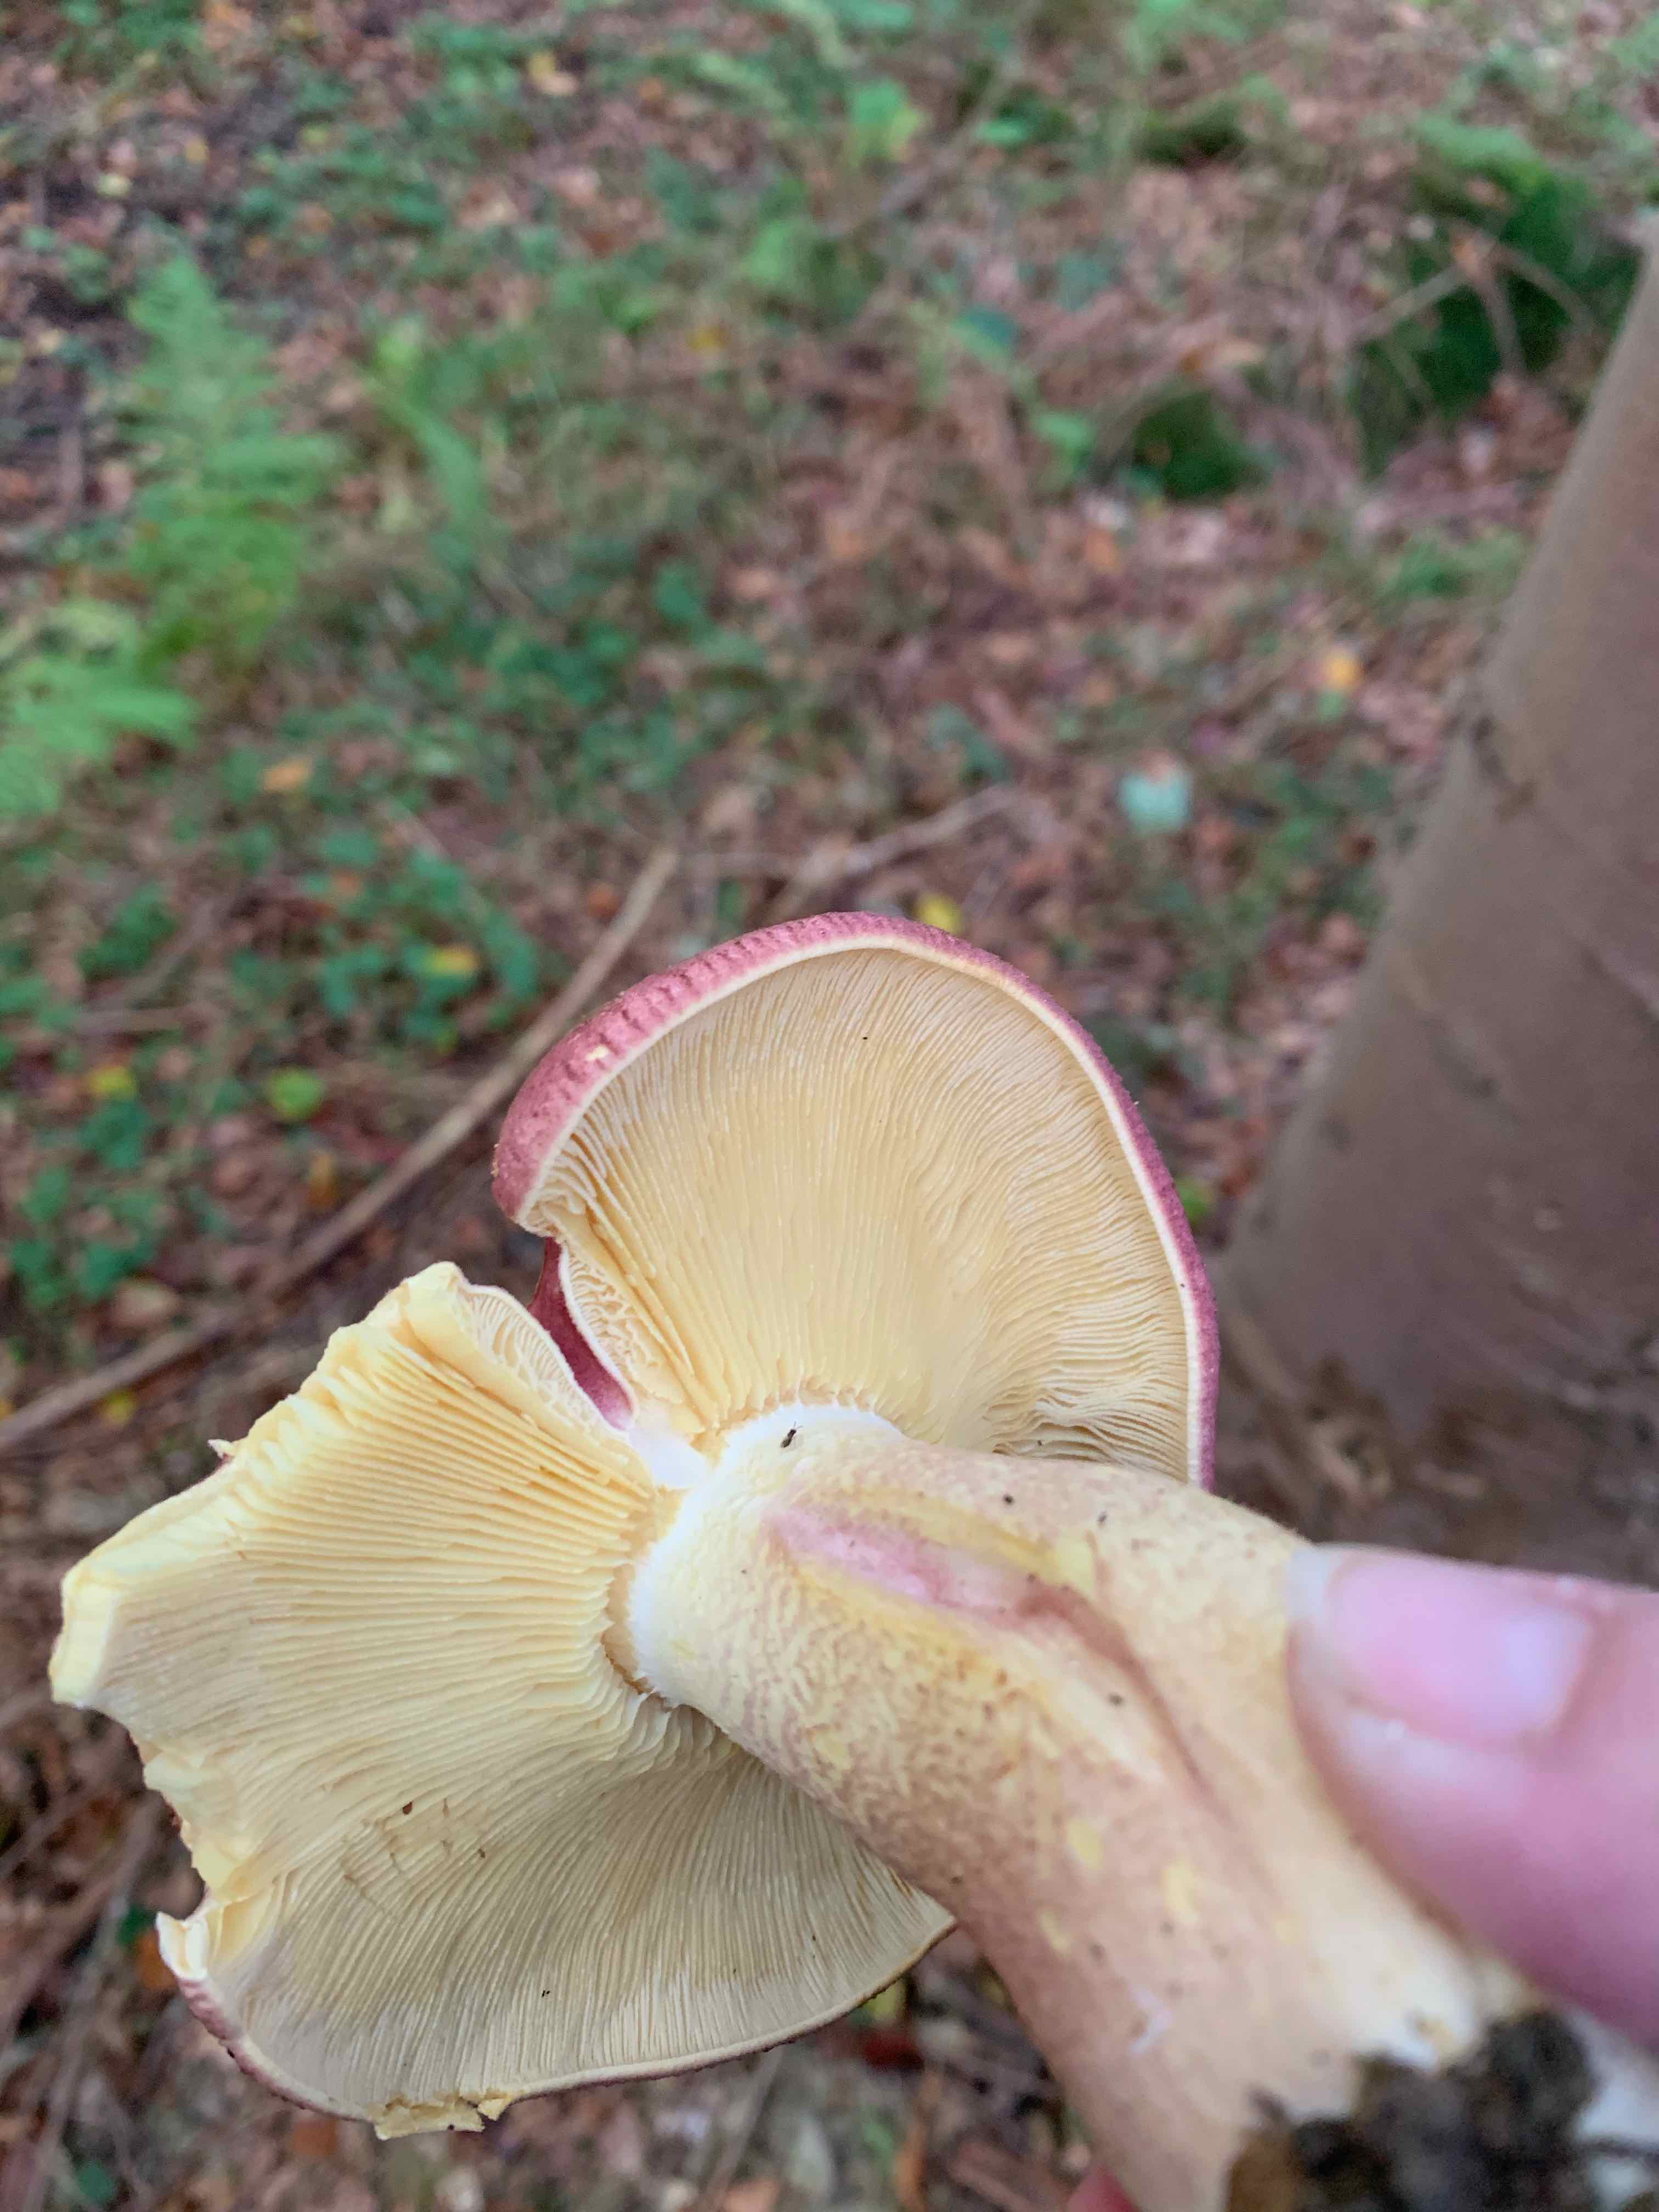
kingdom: Fungi
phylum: Basidiomycota
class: Agaricomycetes
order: Agaricales
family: Tricholomataceae
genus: Tricholomopsis
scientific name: Tricholomopsis rutilans
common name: purpur-væbnerhat
